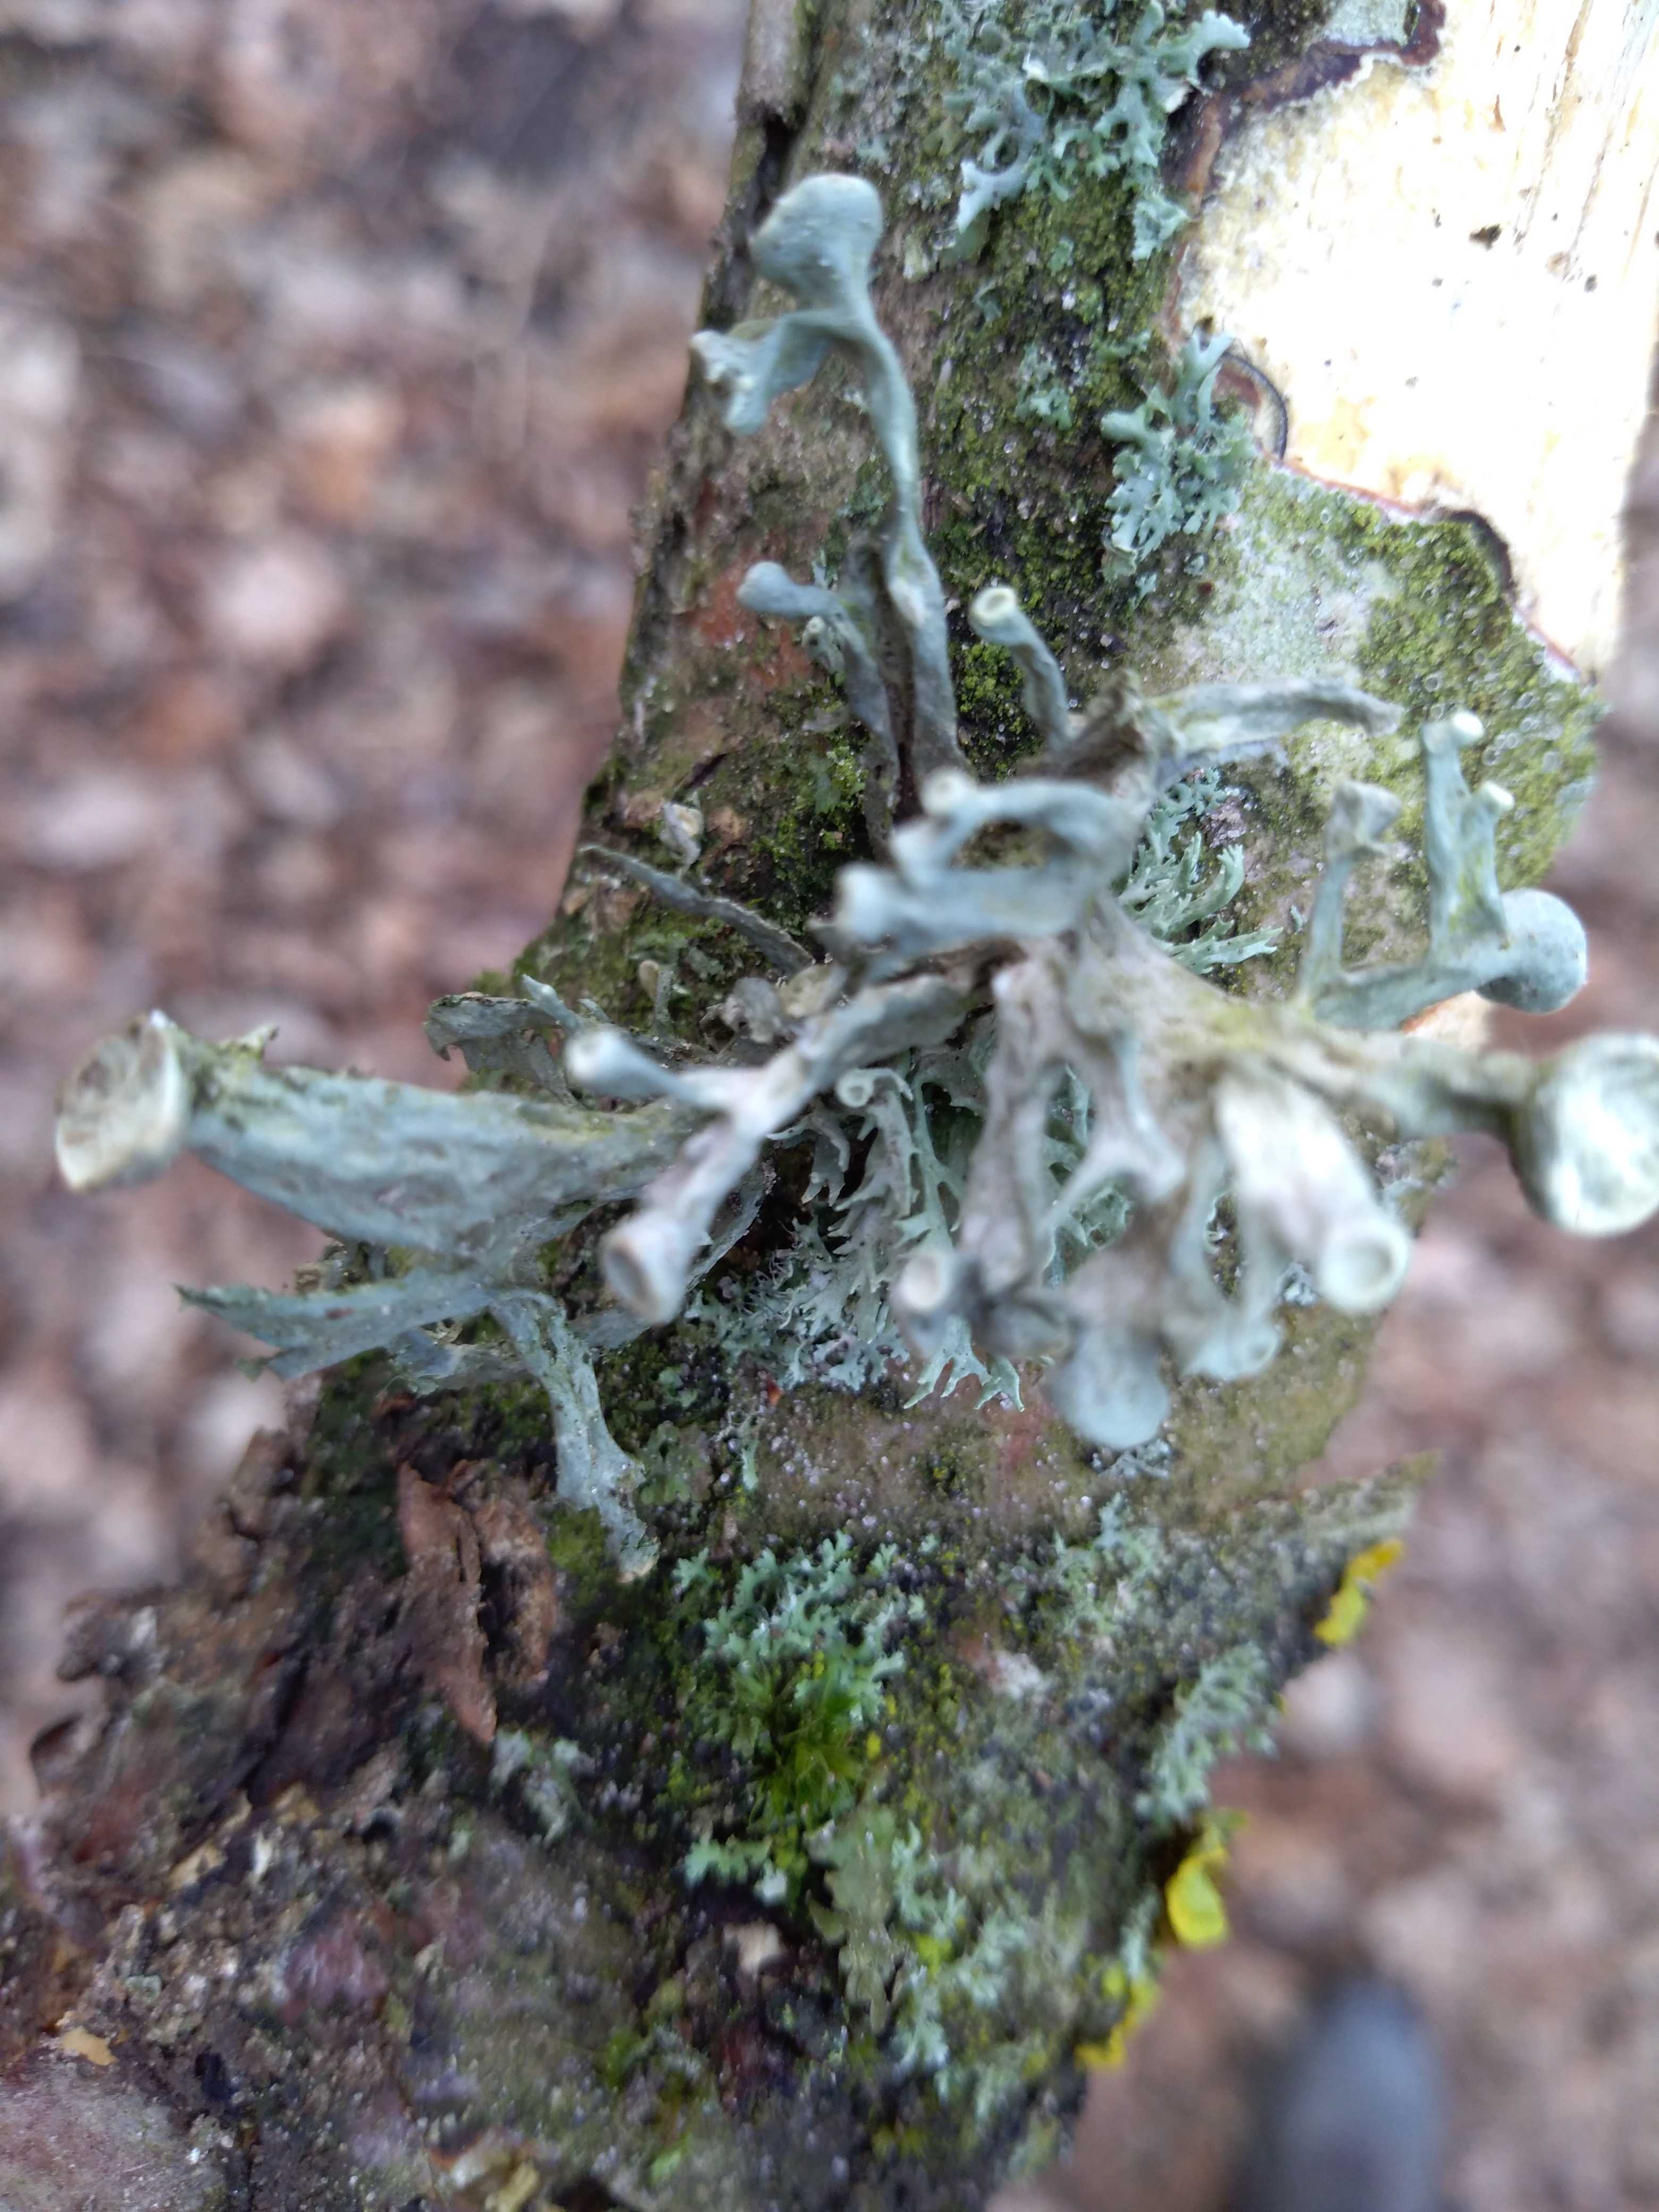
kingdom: Fungi
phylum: Ascomycota
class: Lecanoromycetes
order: Lecanorales
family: Ramalinaceae
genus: Ramalina
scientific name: Ramalina fastigiata
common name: tue-grenlav
